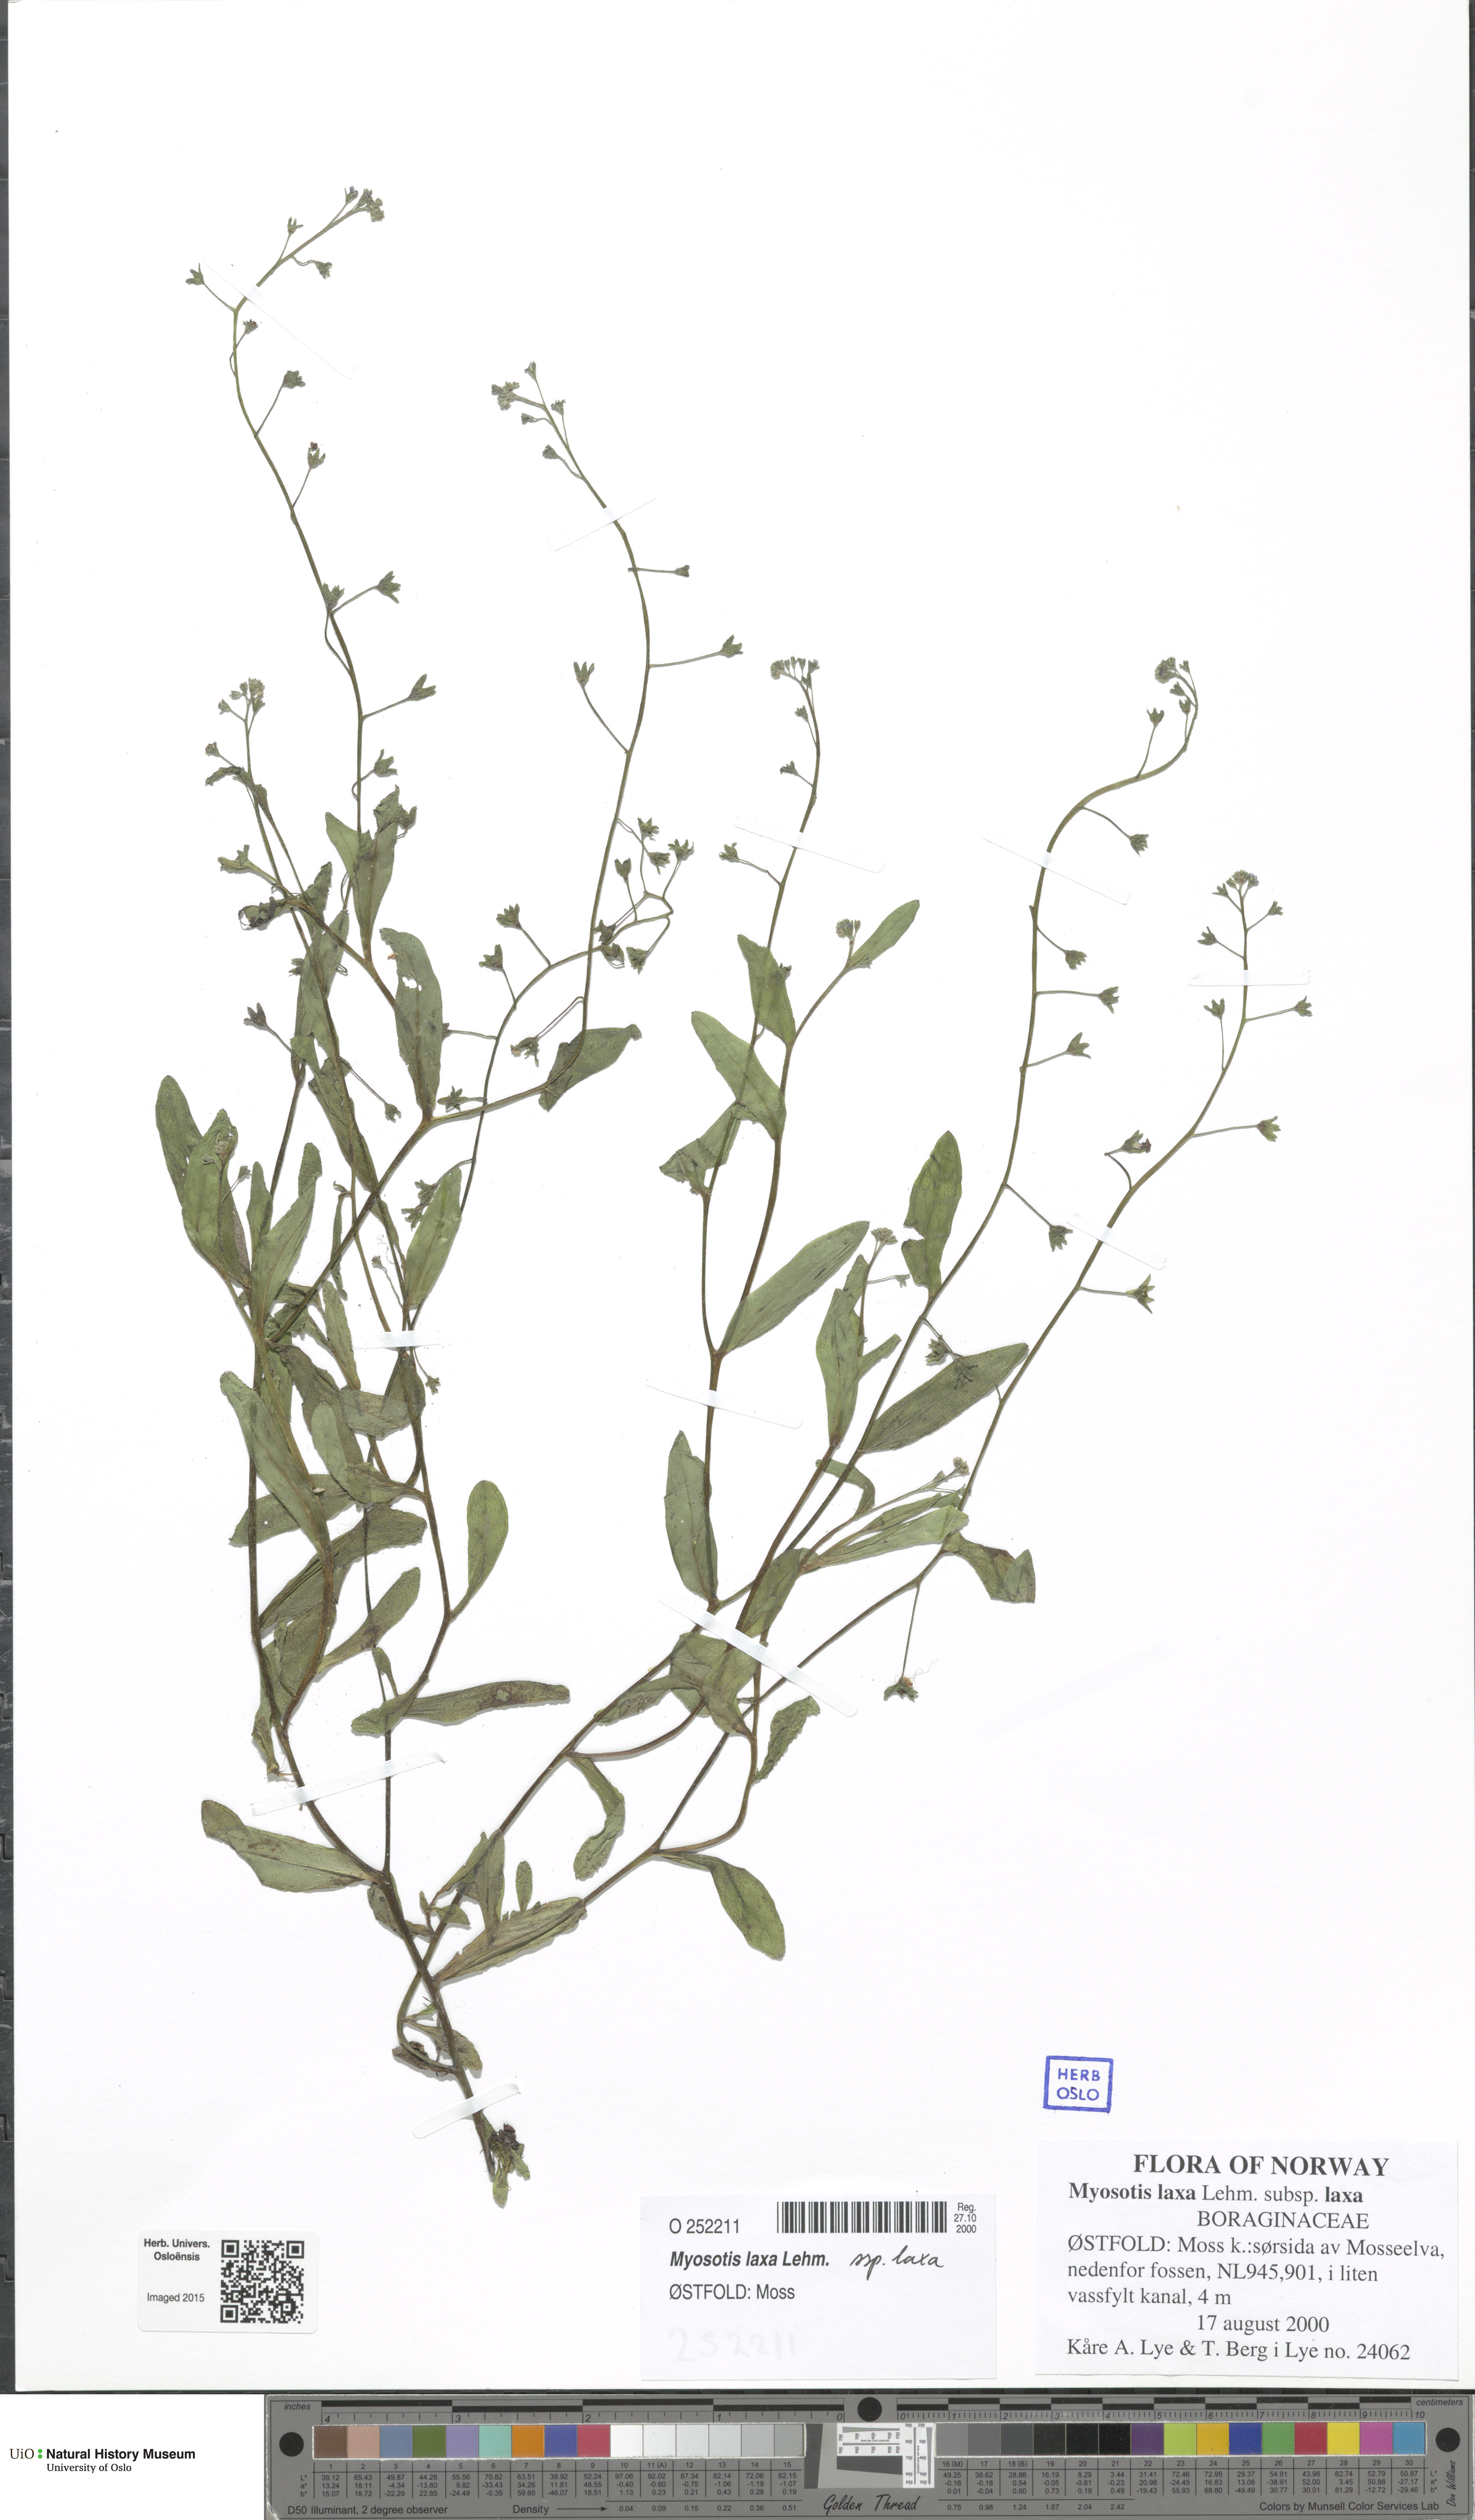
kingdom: Plantae
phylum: Tracheophyta
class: Magnoliopsida
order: Boraginales
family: Boraginaceae
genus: Myosotis
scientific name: Myosotis laxa
